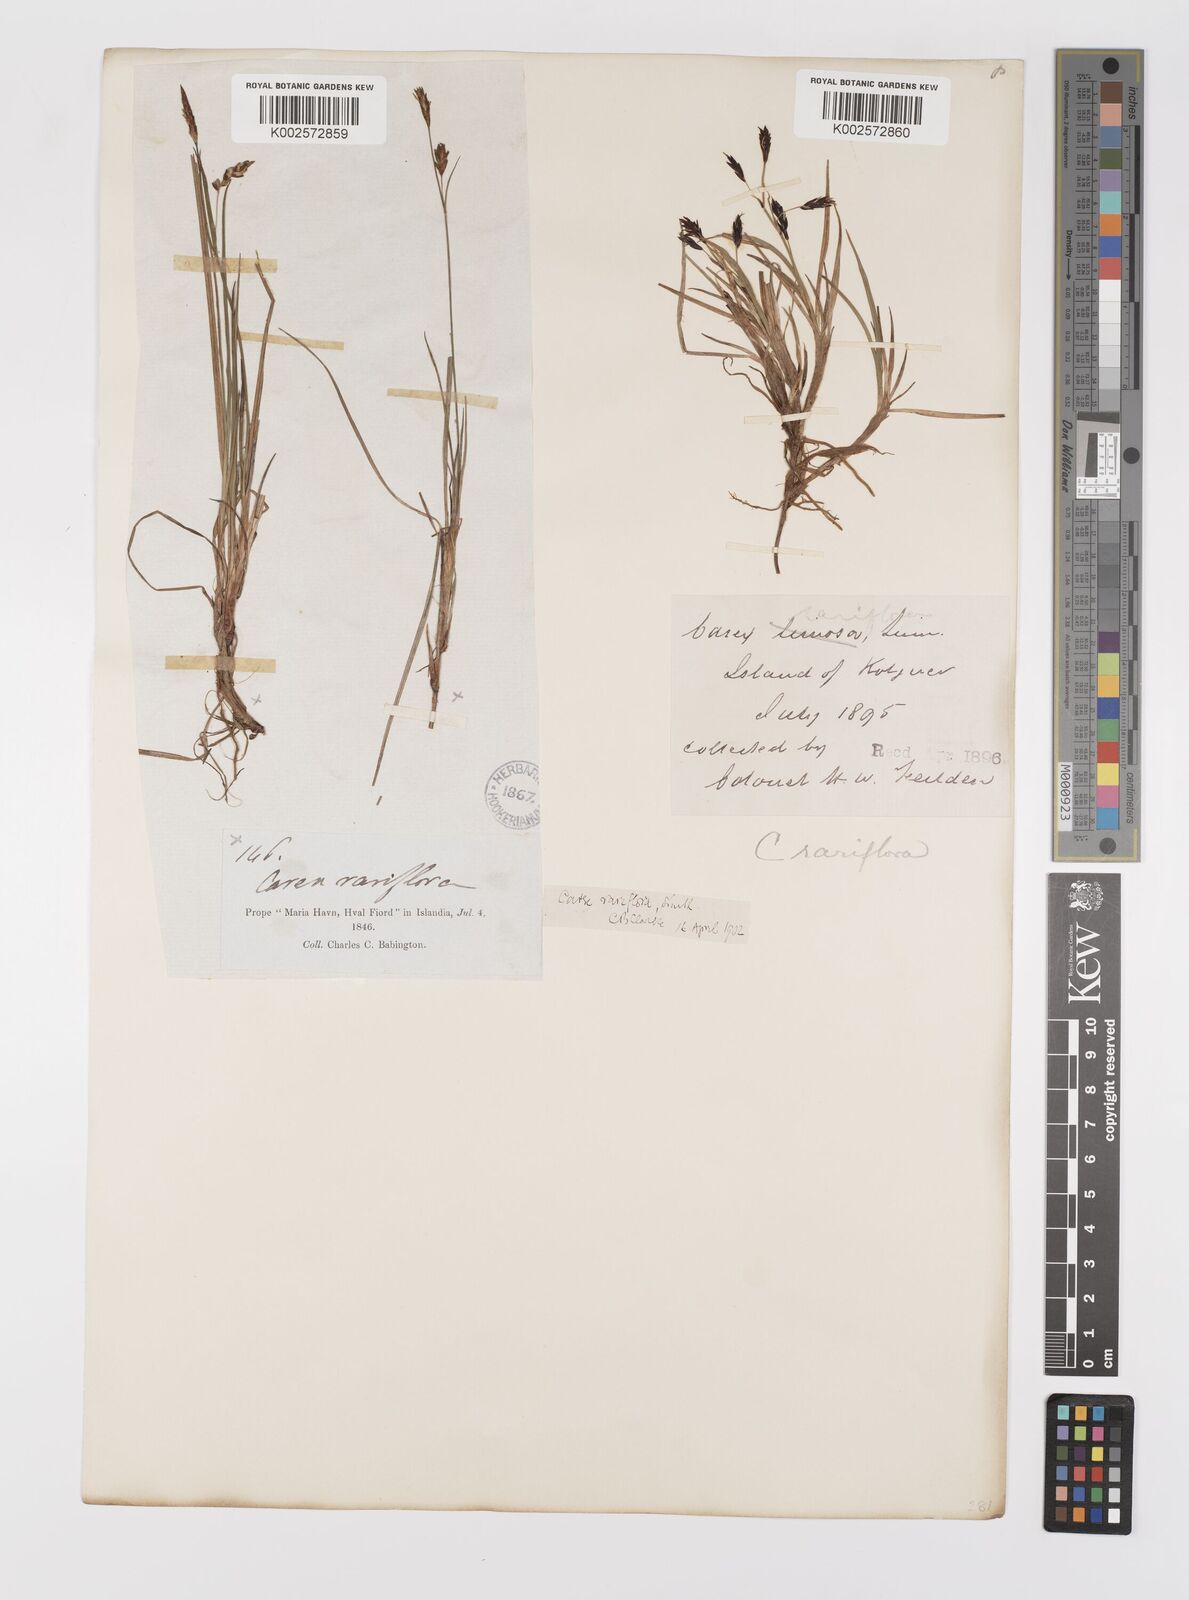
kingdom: Plantae
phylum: Tracheophyta
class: Liliopsida
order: Poales
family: Cyperaceae
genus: Carex
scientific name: Carex rariflora
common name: Loose-flowered alpine sedge
